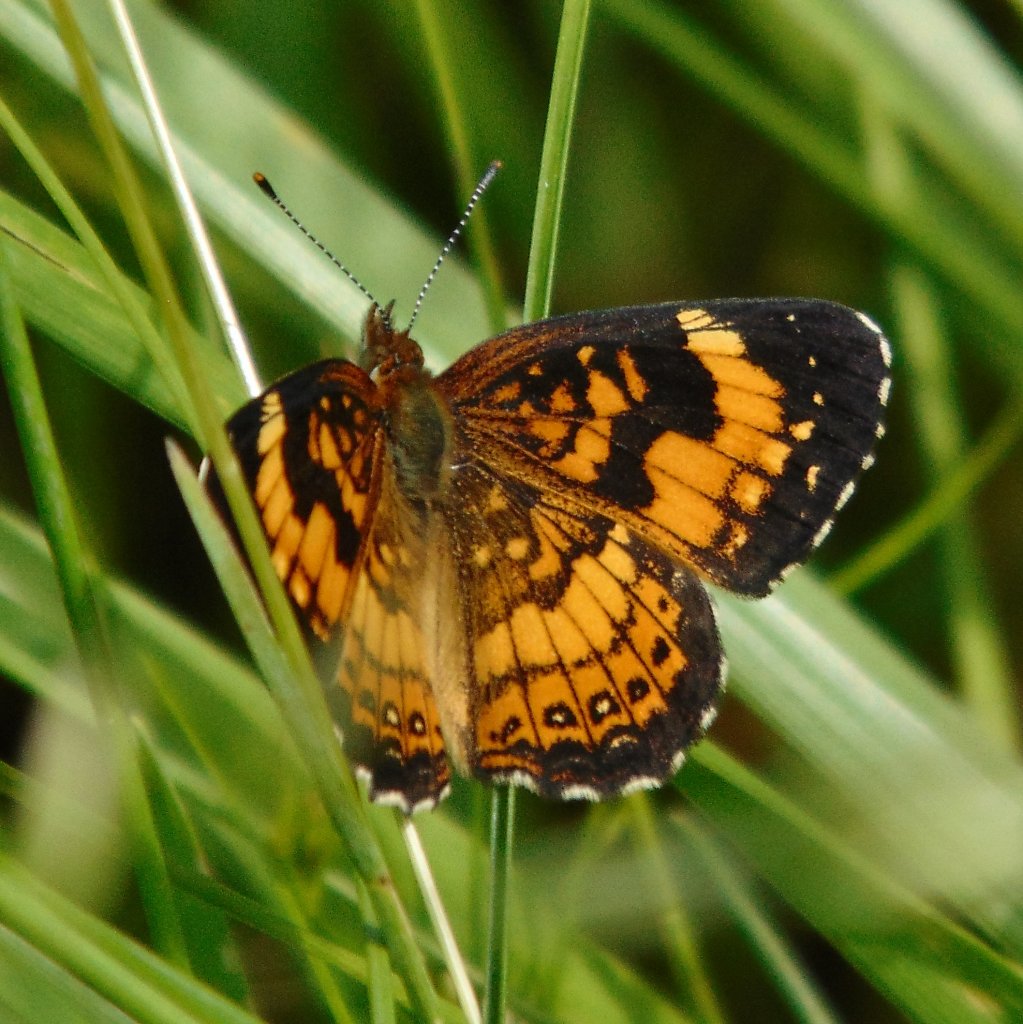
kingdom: Animalia
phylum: Arthropoda
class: Insecta
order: Lepidoptera
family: Nymphalidae
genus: Chlosyne
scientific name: Chlosyne nycteis
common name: Silvery Checkerspot
